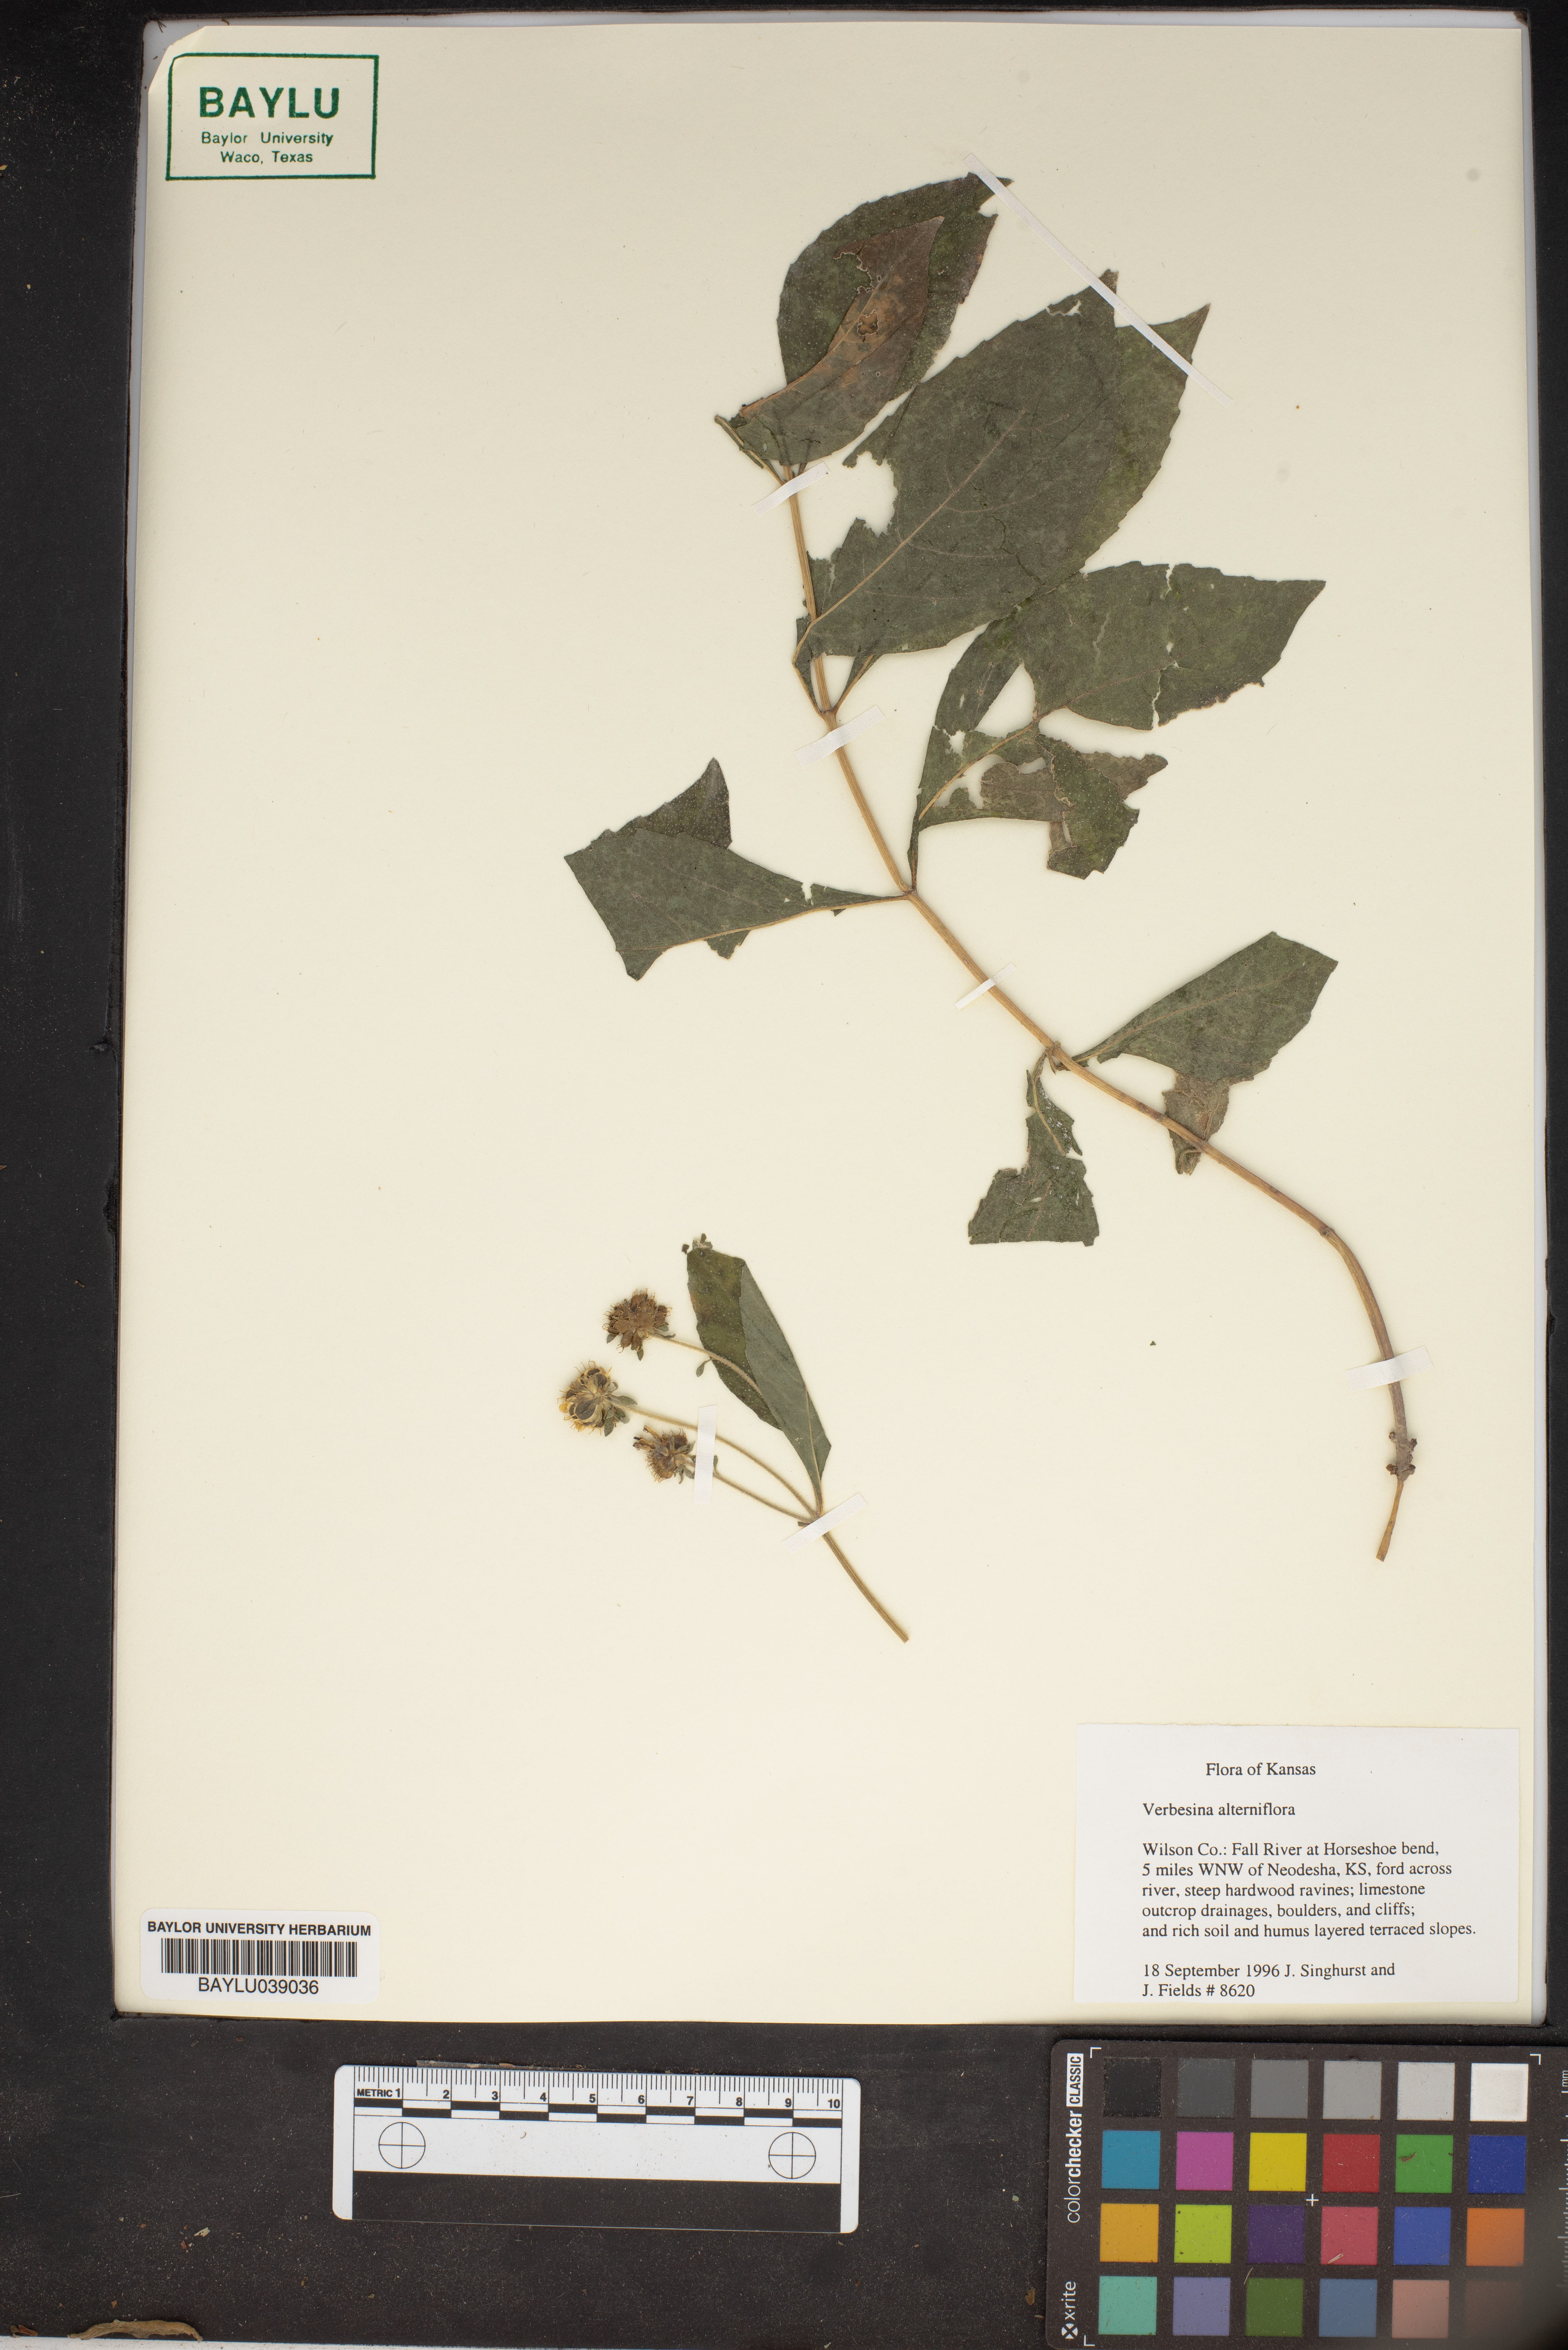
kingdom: Plantae
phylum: Tracheophyta
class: Magnoliopsida
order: Asterales
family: Asteraceae
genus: Verbesina
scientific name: Verbesina alternifolia
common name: Wingstem
